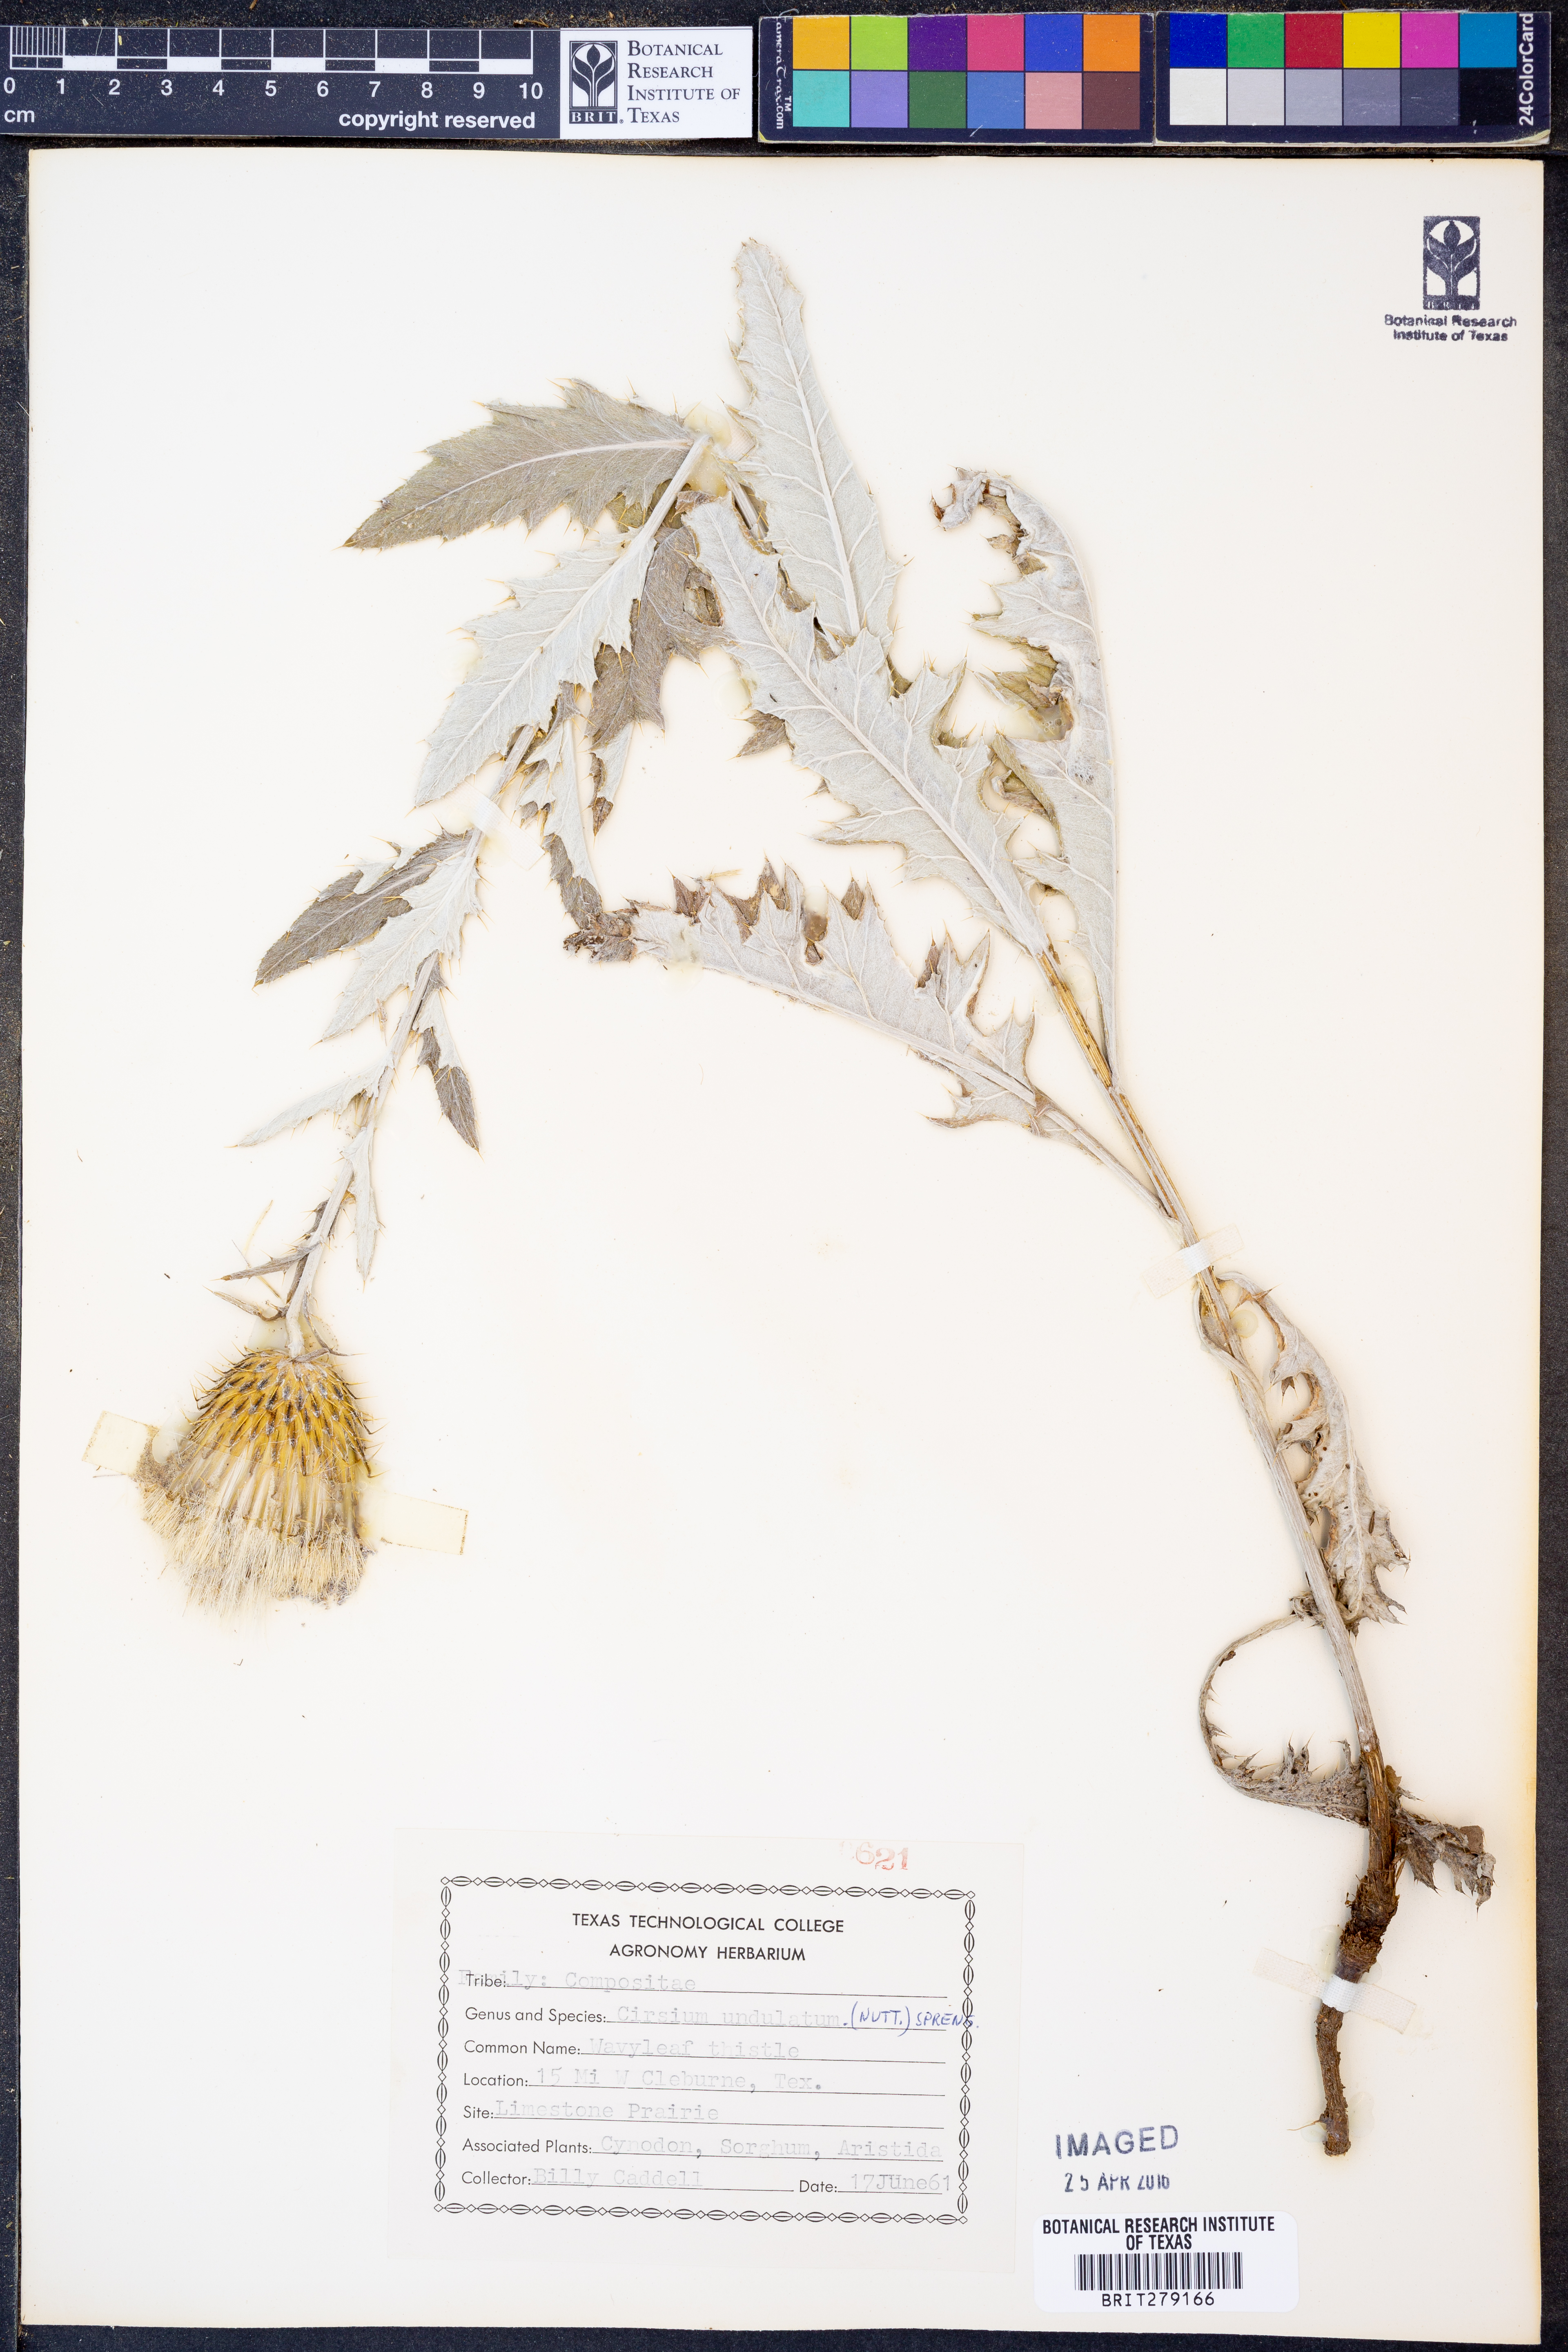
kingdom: Plantae
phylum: Tracheophyta
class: Magnoliopsida
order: Asterales
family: Asteraceae
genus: Cirsium
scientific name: Cirsium undulatum
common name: Pasture thistle
